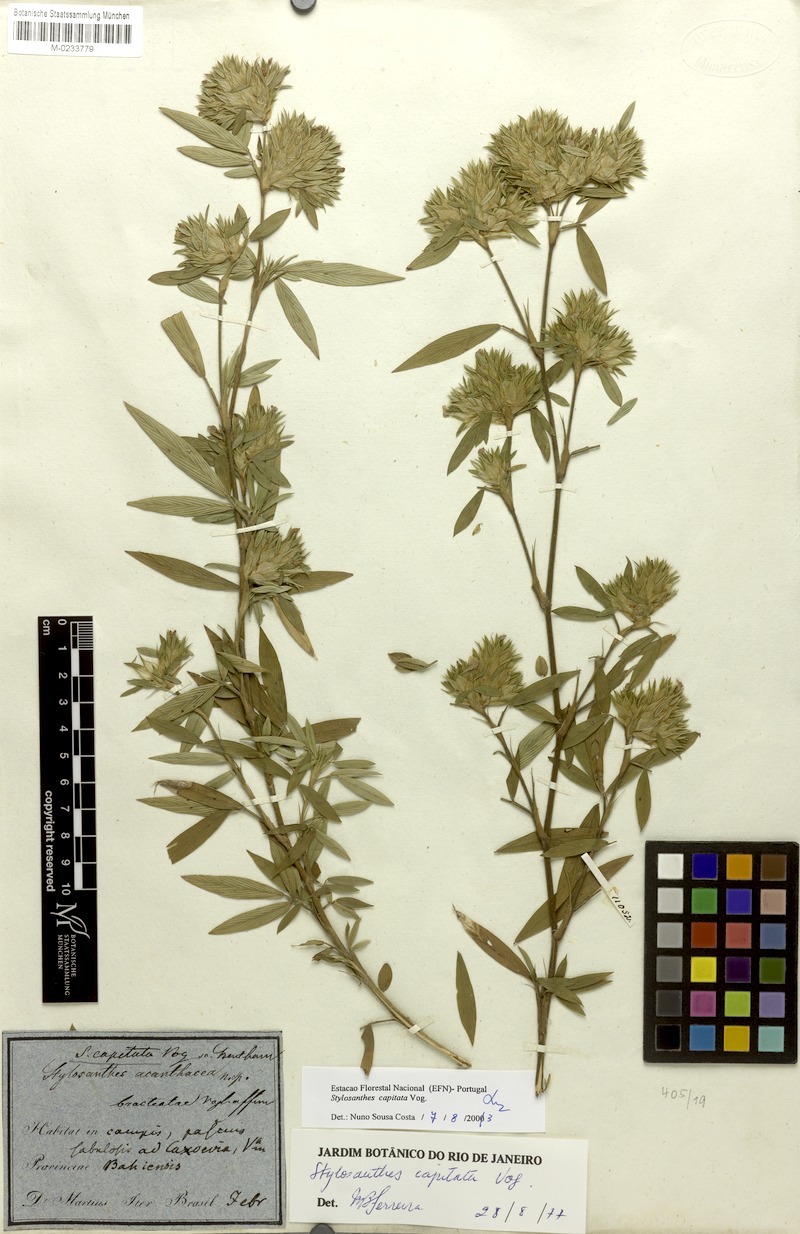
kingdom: Plantae
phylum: Tracheophyta
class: Magnoliopsida
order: Fabales
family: Fabaceae
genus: Stylosanthes
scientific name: Stylosanthes capitata
